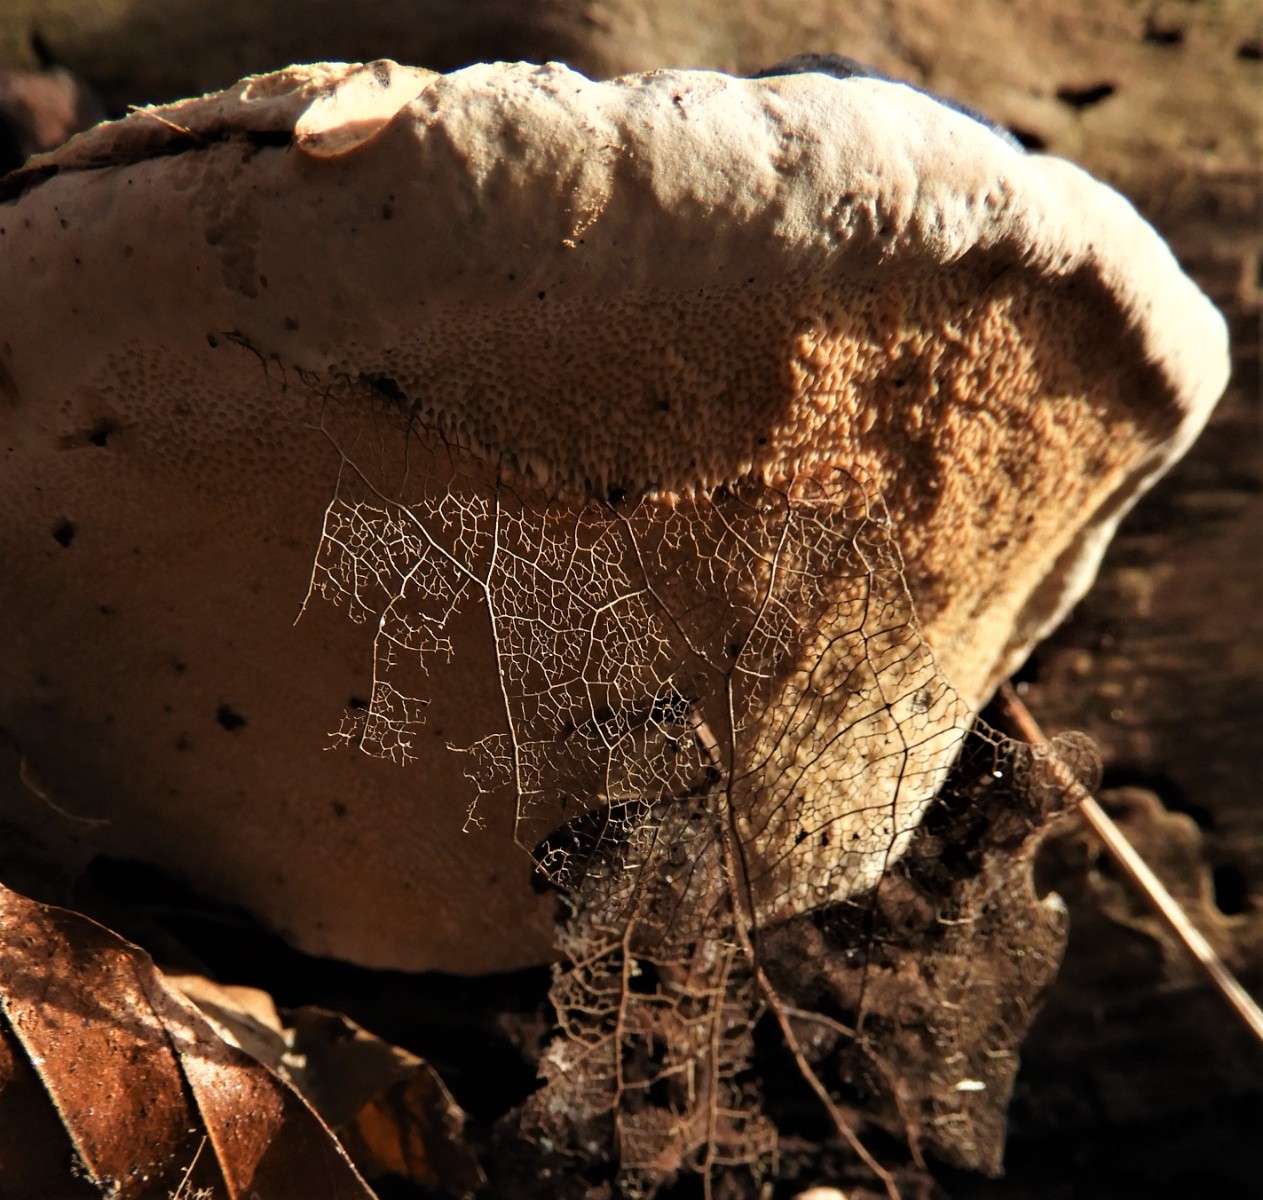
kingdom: Fungi
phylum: Basidiomycota
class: Agaricomycetes
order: Polyporales
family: Fomitopsidaceae
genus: Fomitopsis
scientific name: Fomitopsis pinicola
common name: randbæltet hovporesvamp
